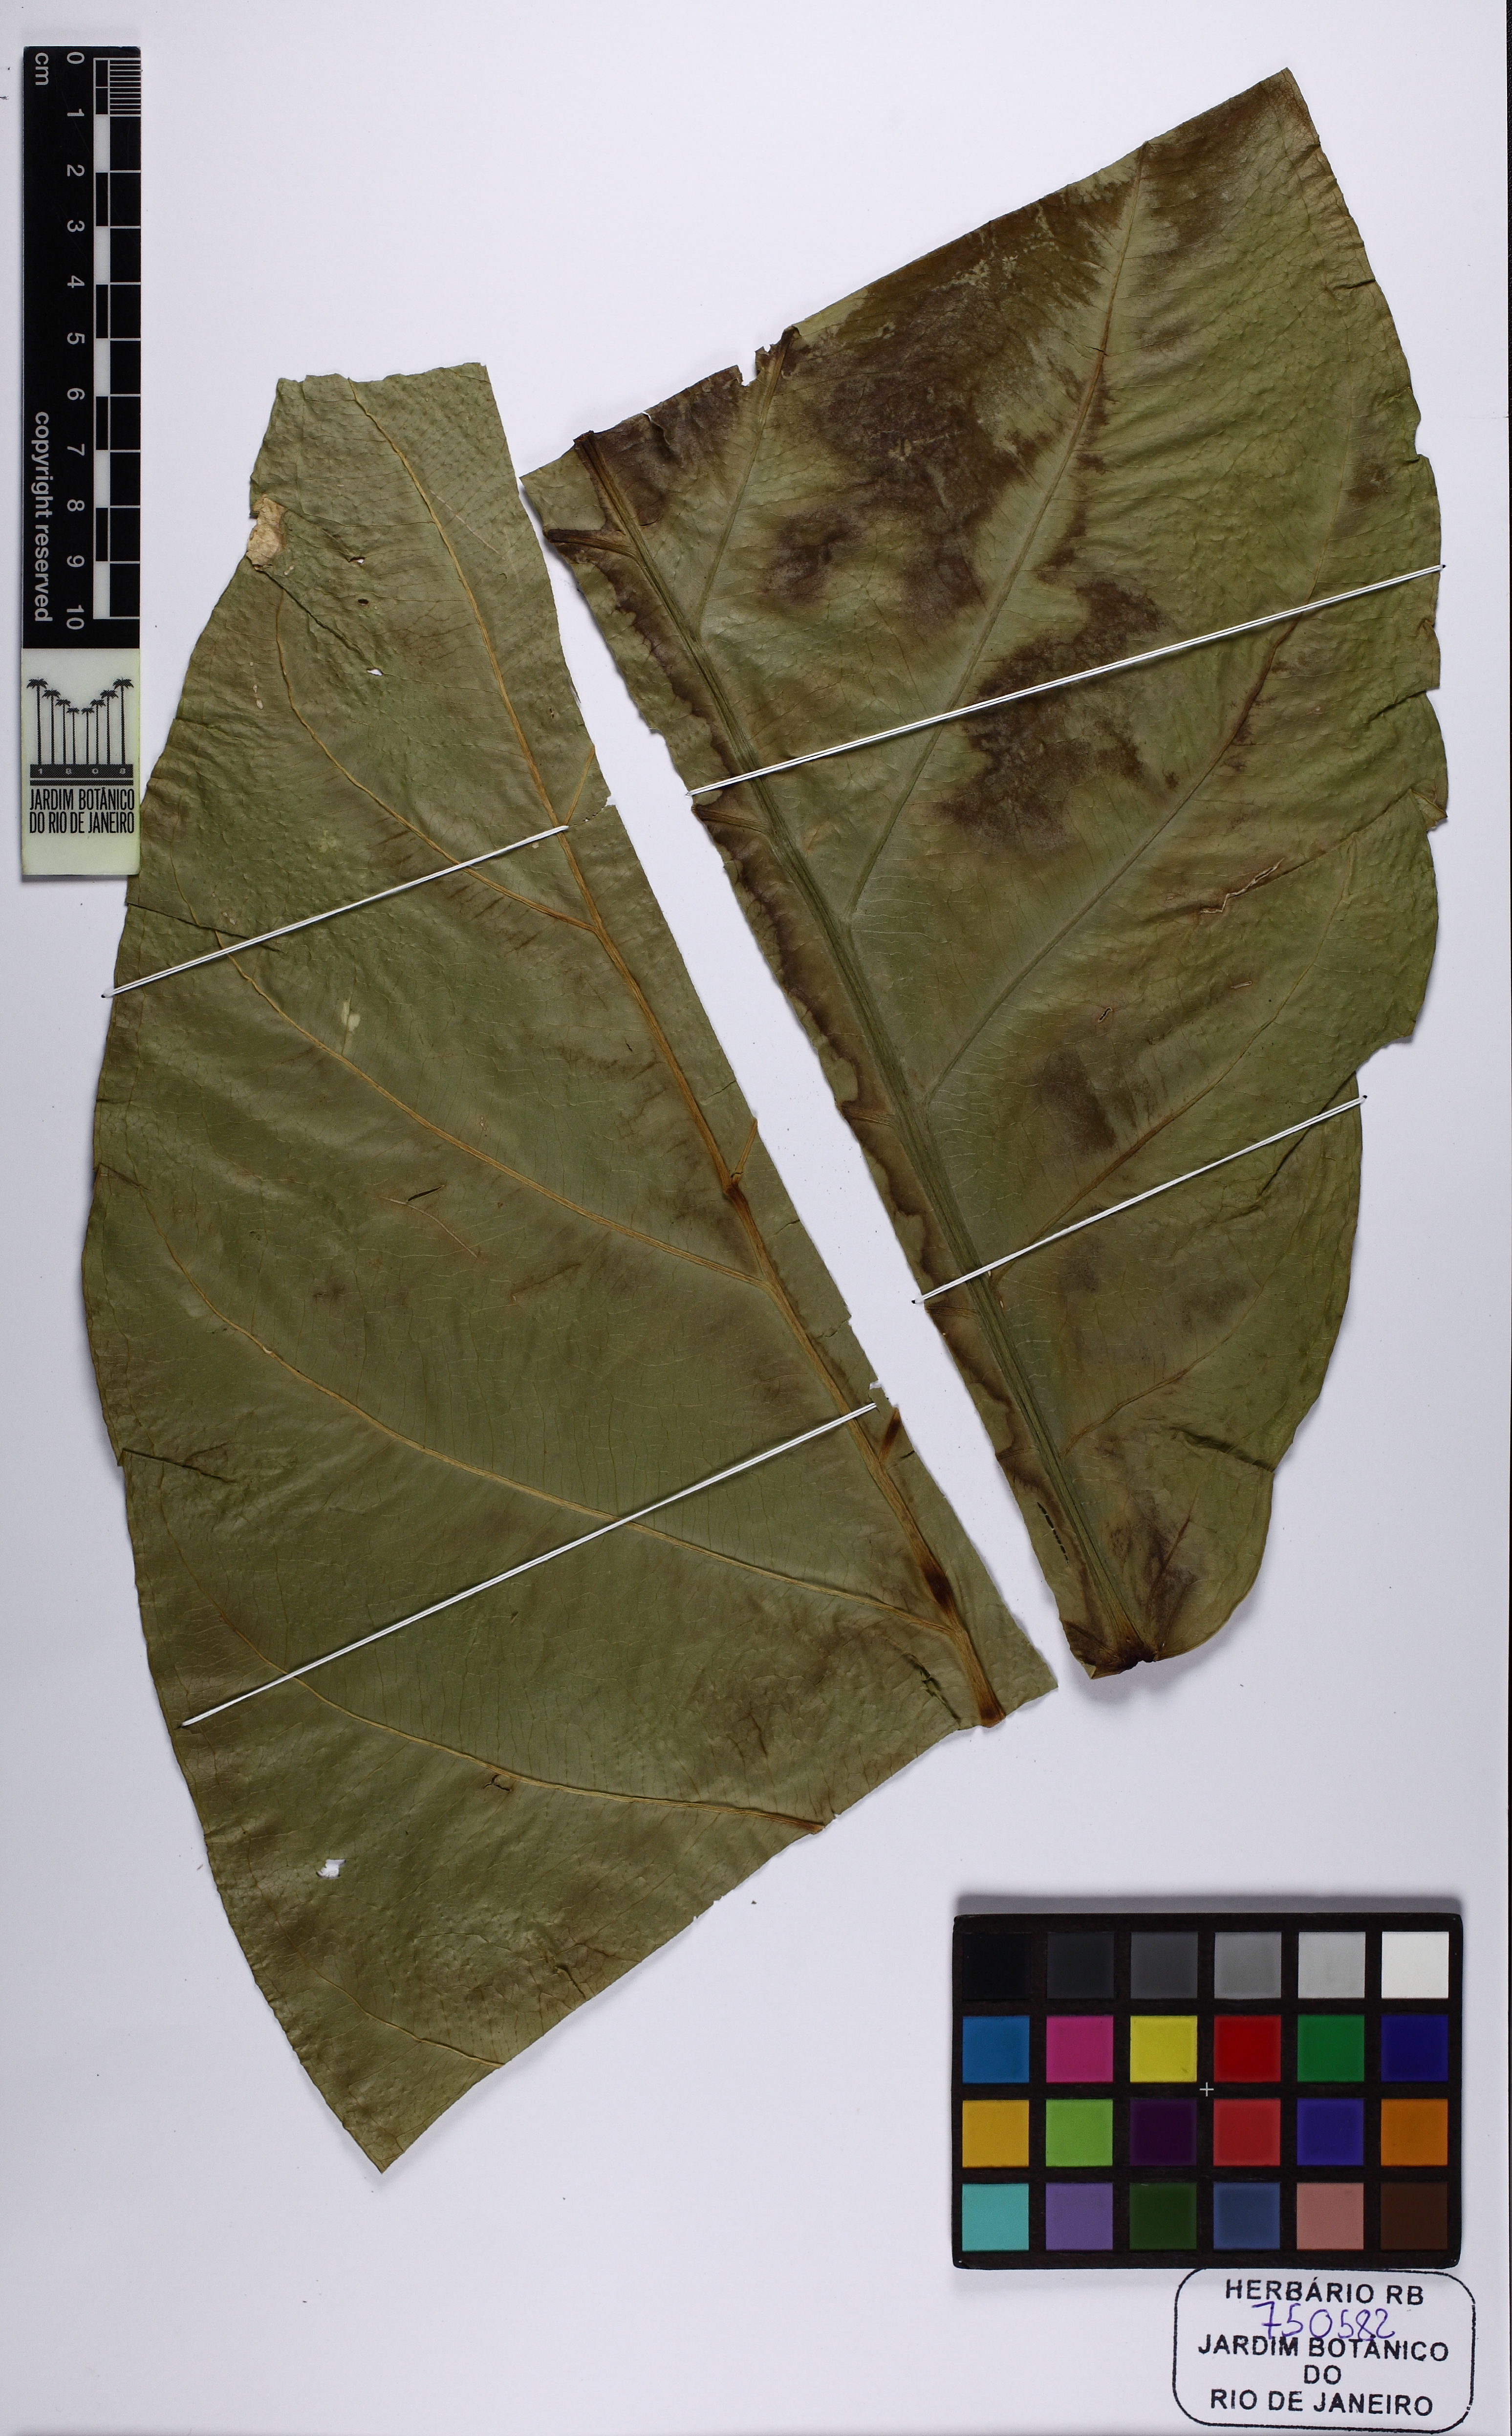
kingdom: Plantae
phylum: Tracheophyta
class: Liliopsida
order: Alismatales
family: Araceae
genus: Anthurium
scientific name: Anthurium plowmanii
